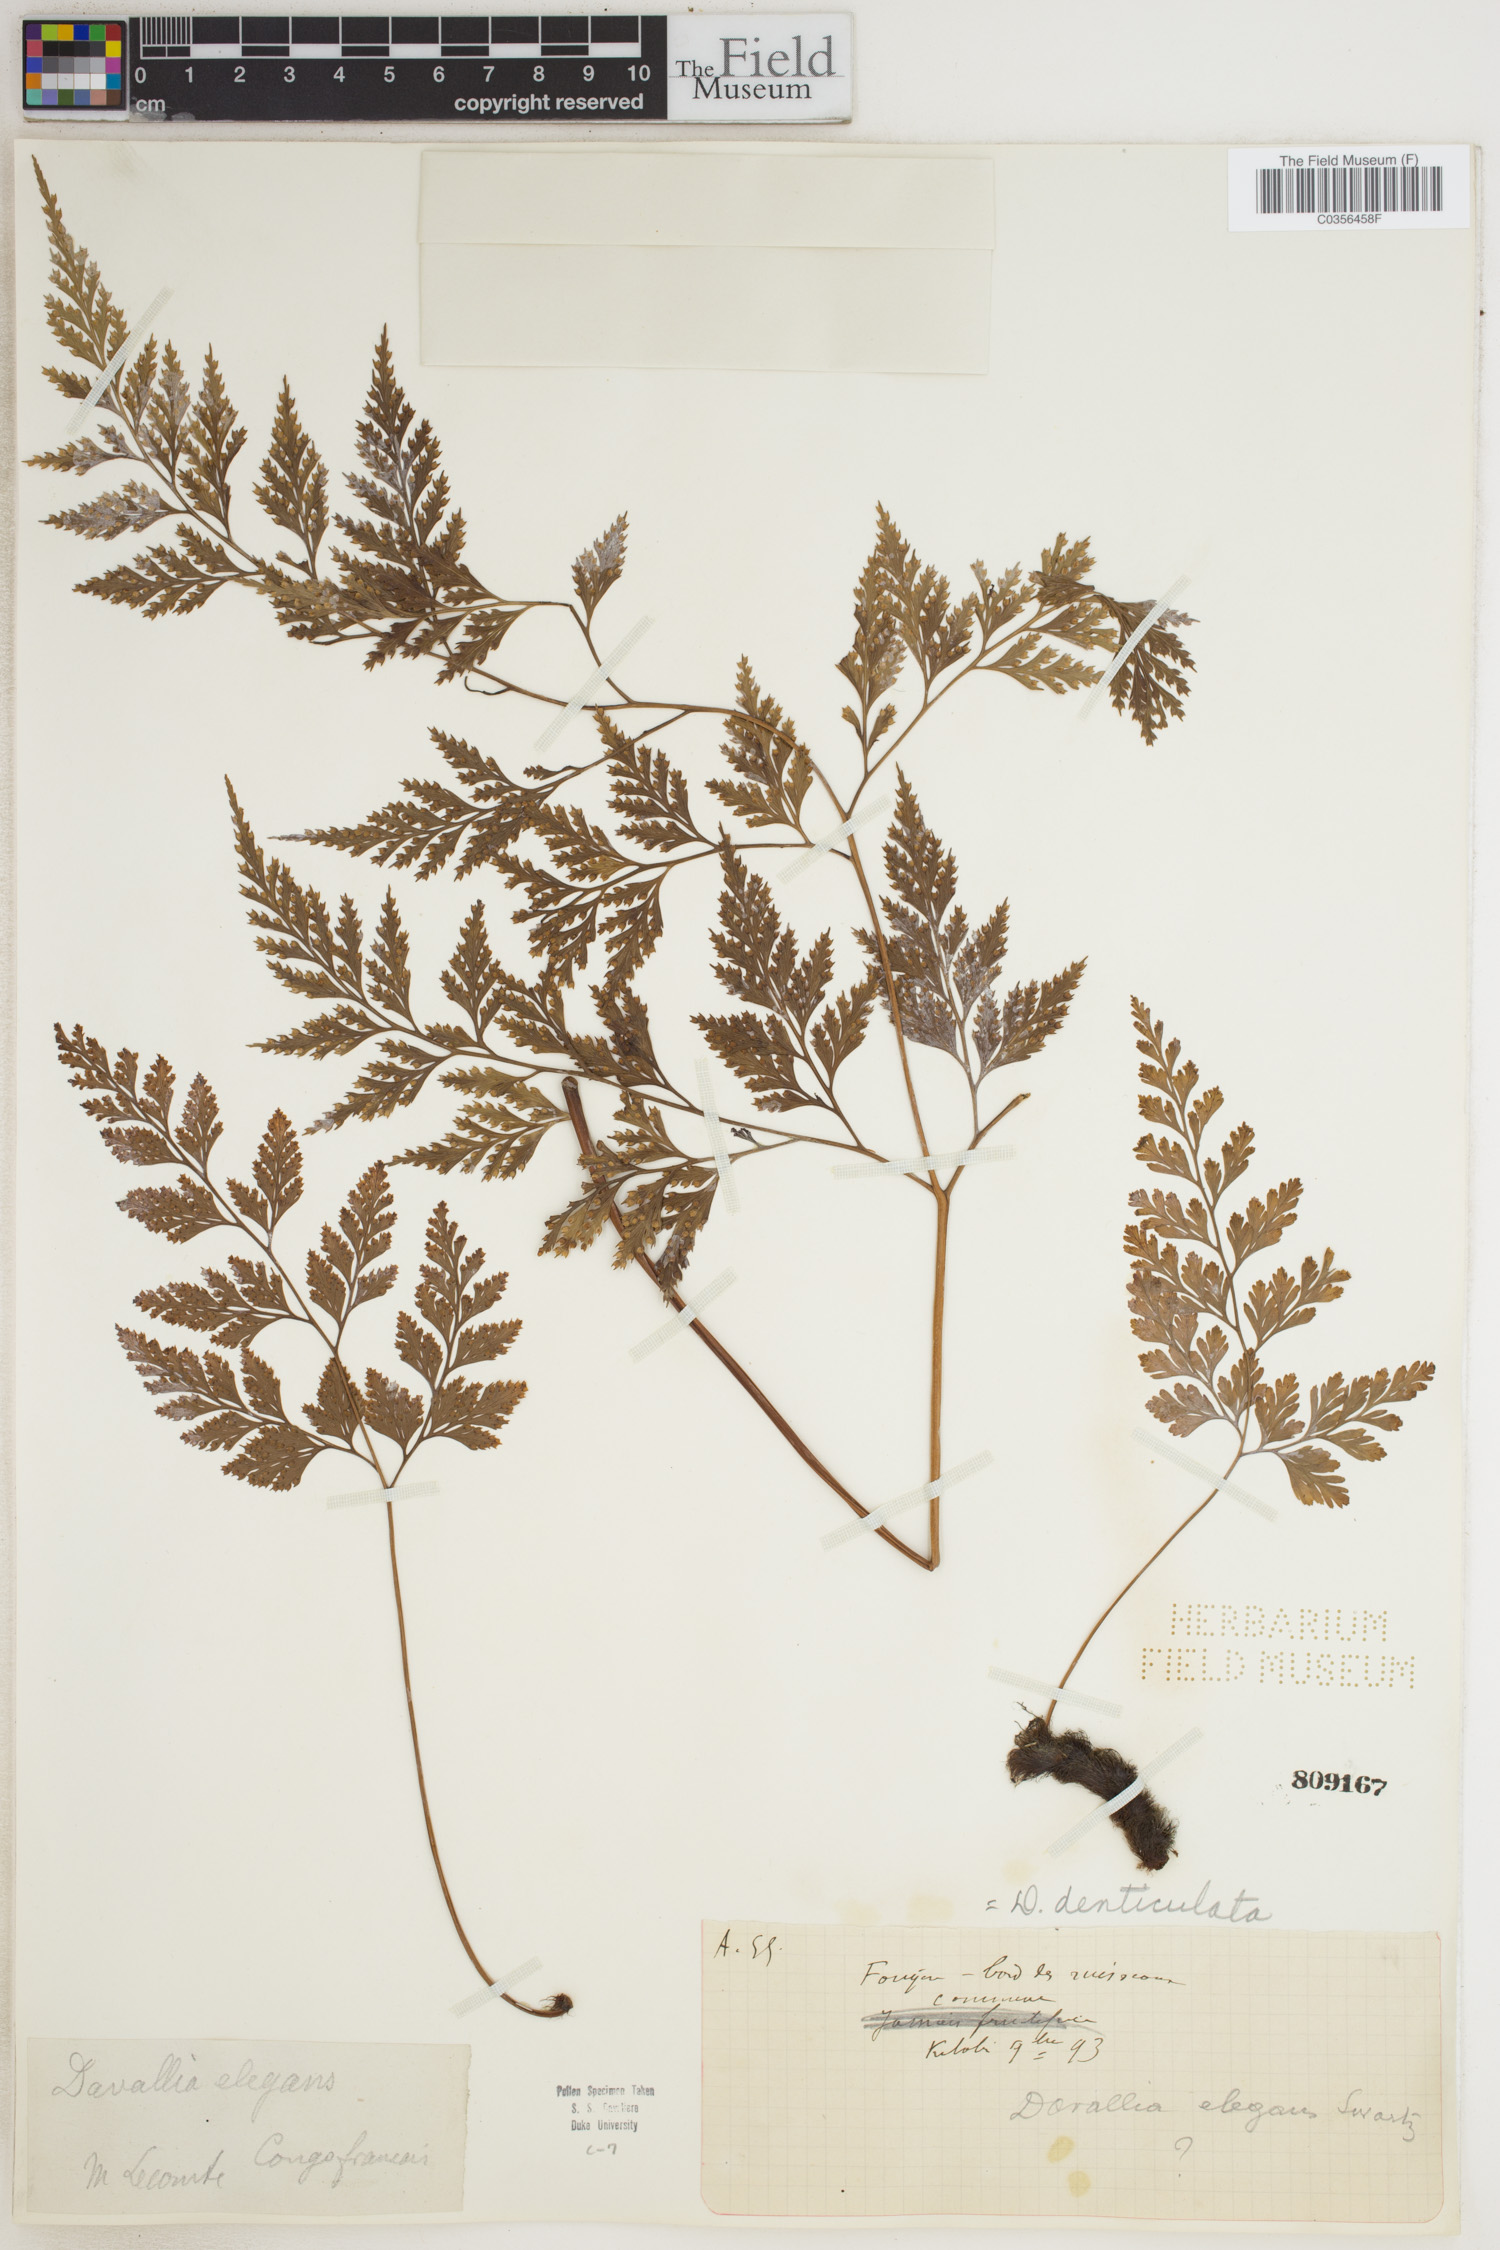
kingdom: Plantae
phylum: Tracheophyta
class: Polypodiopsida
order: Polypodiales
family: Davalliaceae
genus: Davallia
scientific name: Davallia denticulata
